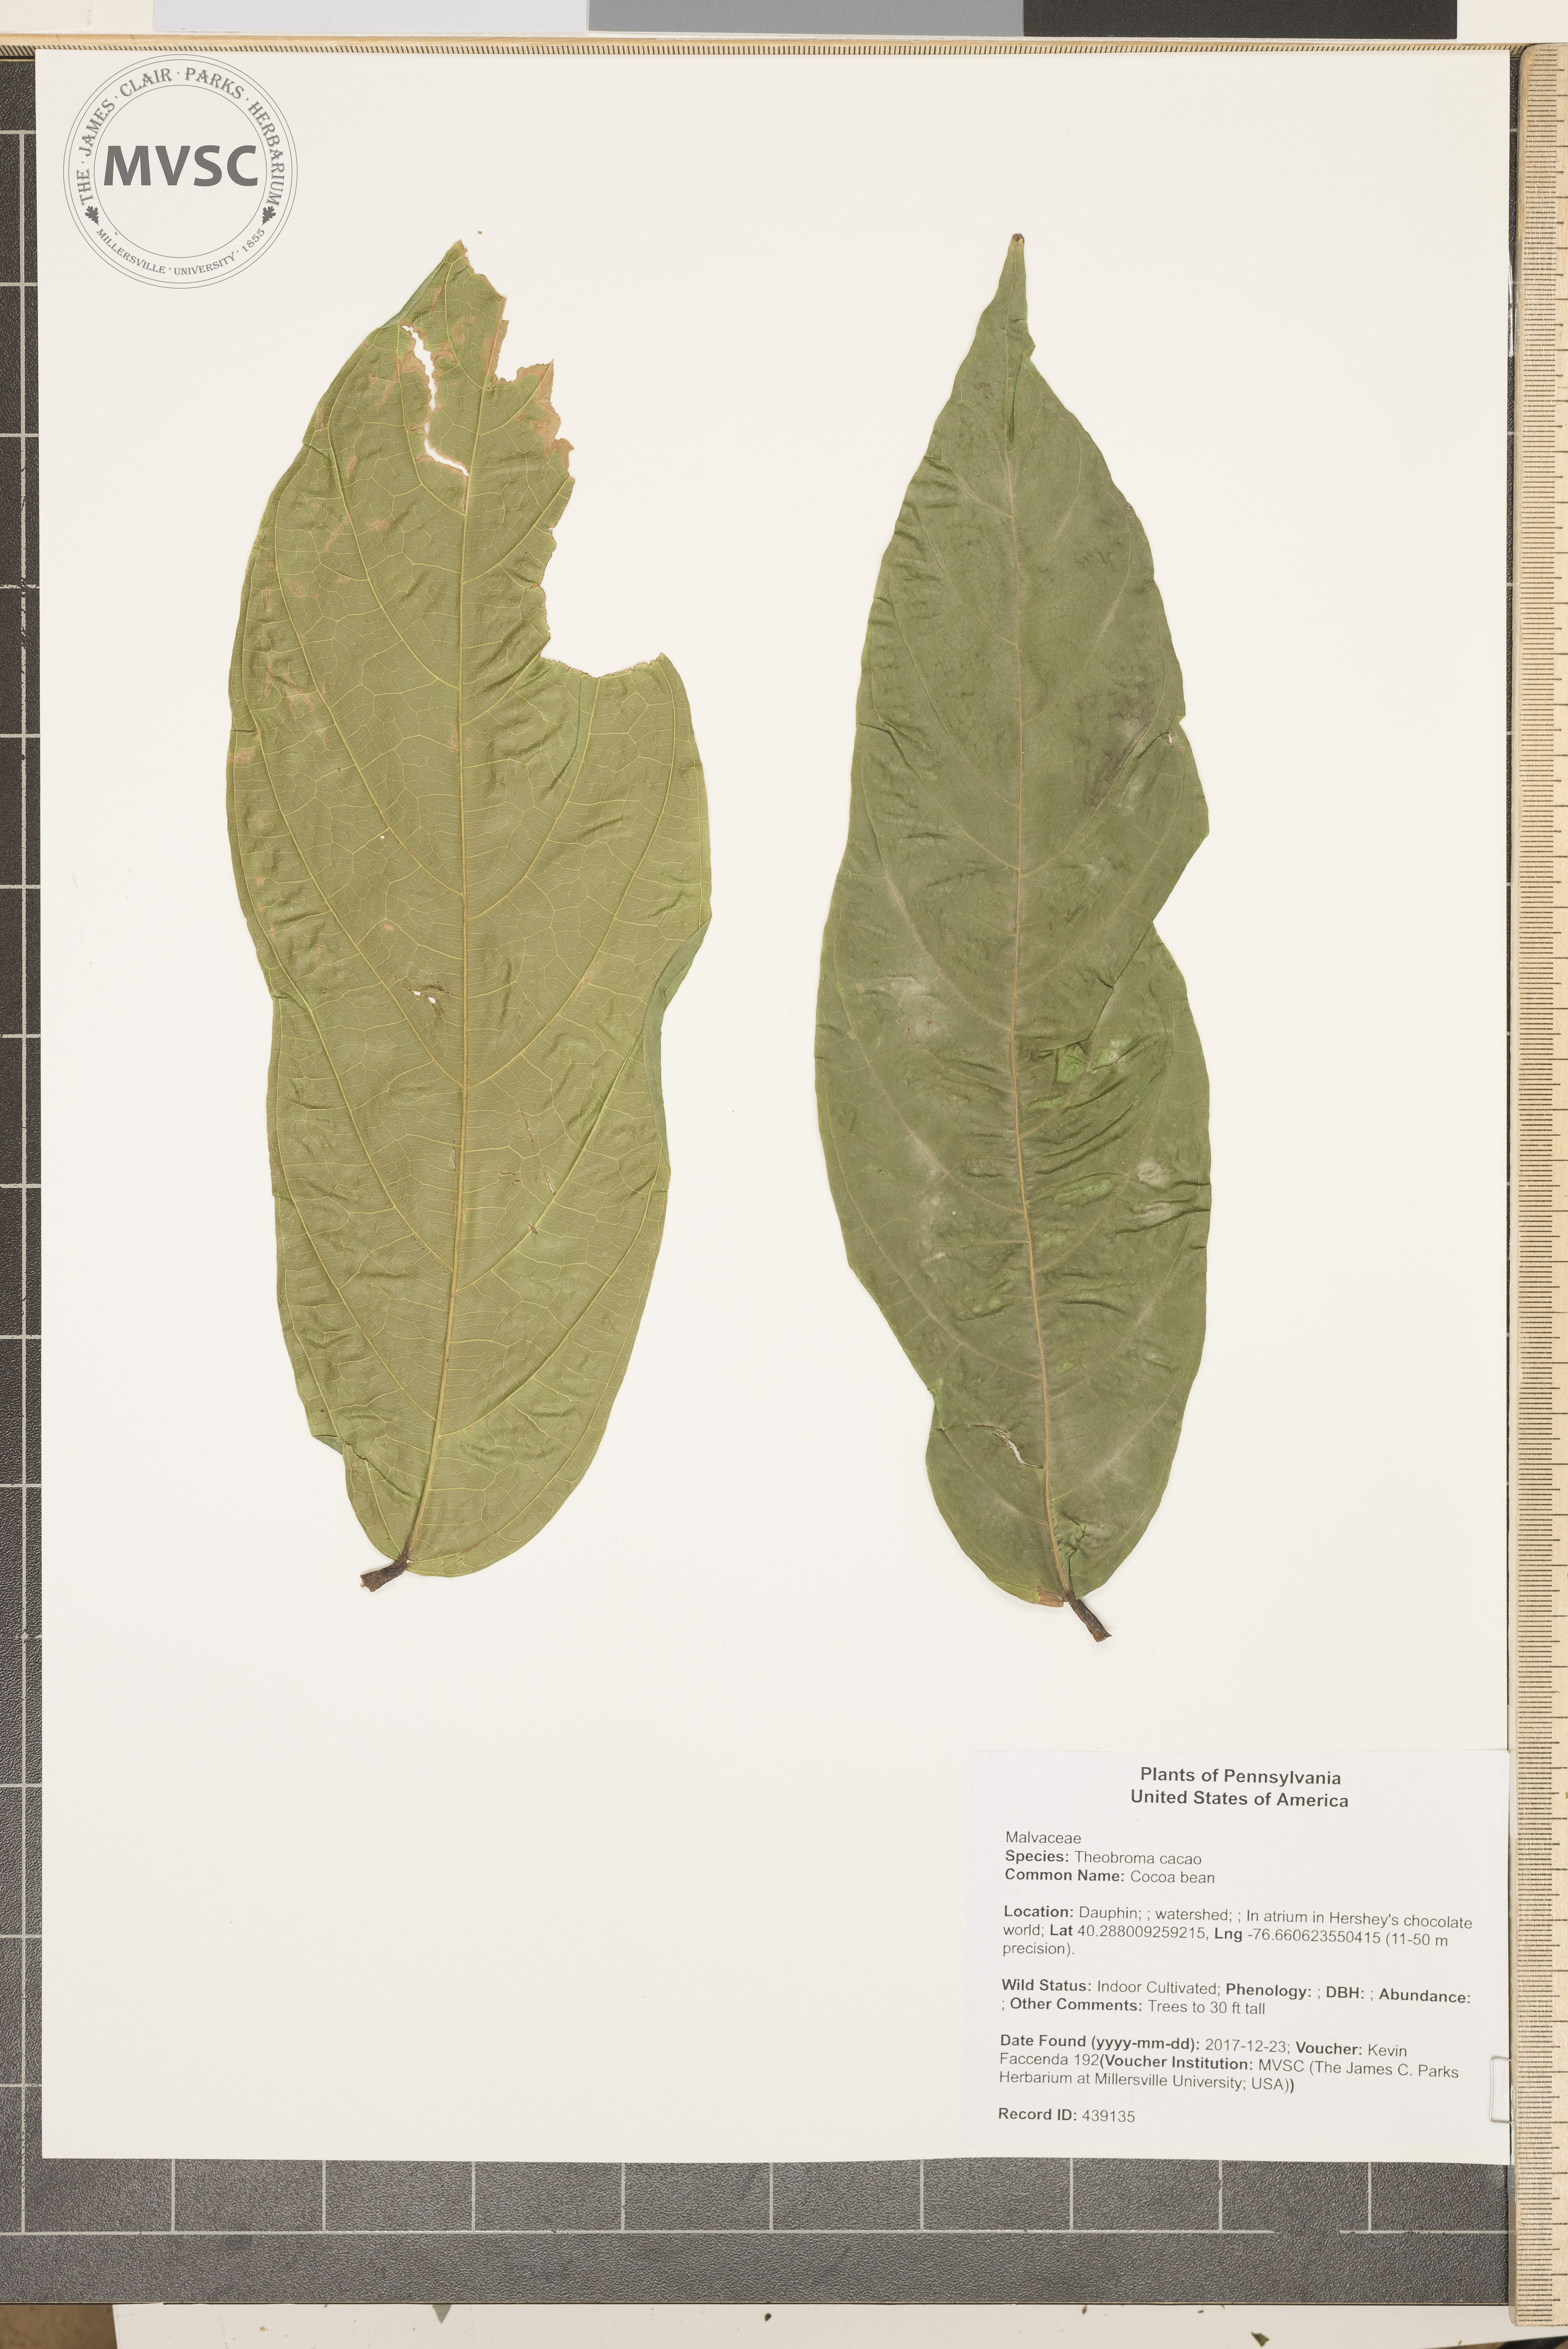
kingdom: Plantae
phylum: Tracheophyta
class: Magnoliopsida
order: Malvales
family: Malvaceae
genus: Theobroma
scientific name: Theobroma cacao
